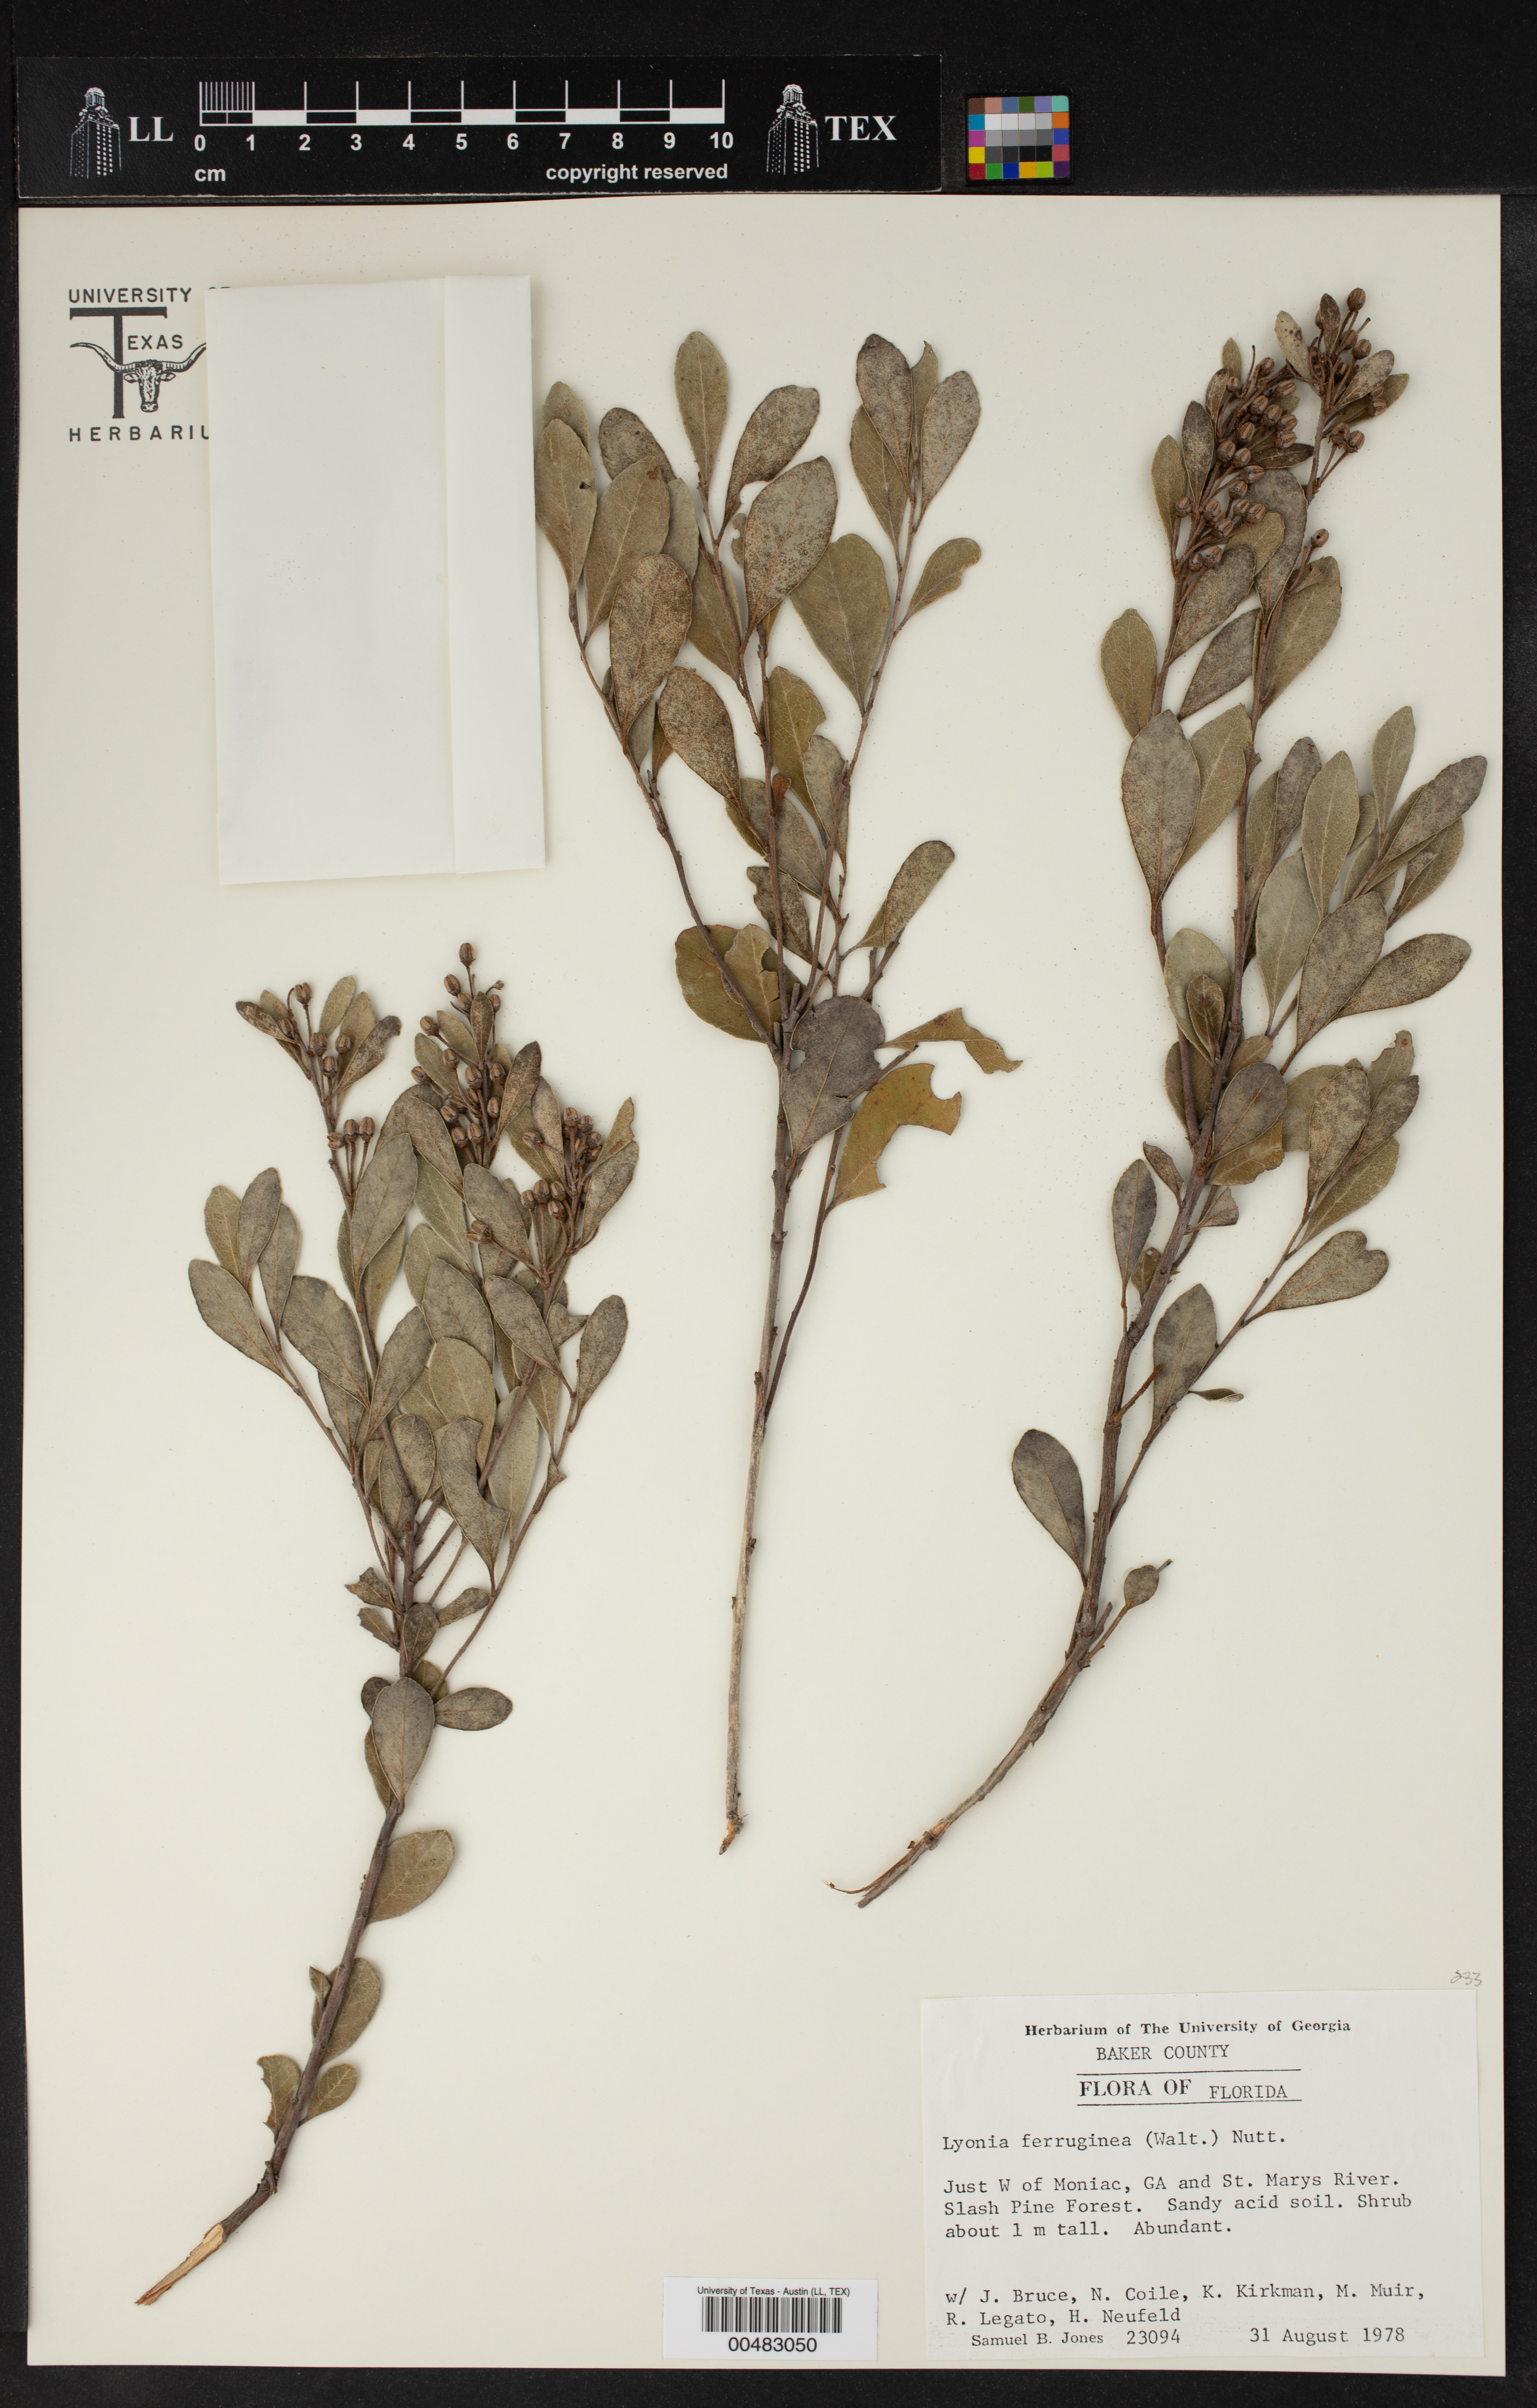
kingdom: Plantae
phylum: Tracheophyta
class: Magnoliopsida
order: Ericales
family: Ericaceae
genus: Lyonia
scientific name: Lyonia ferruginea
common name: Rusty lyonia
